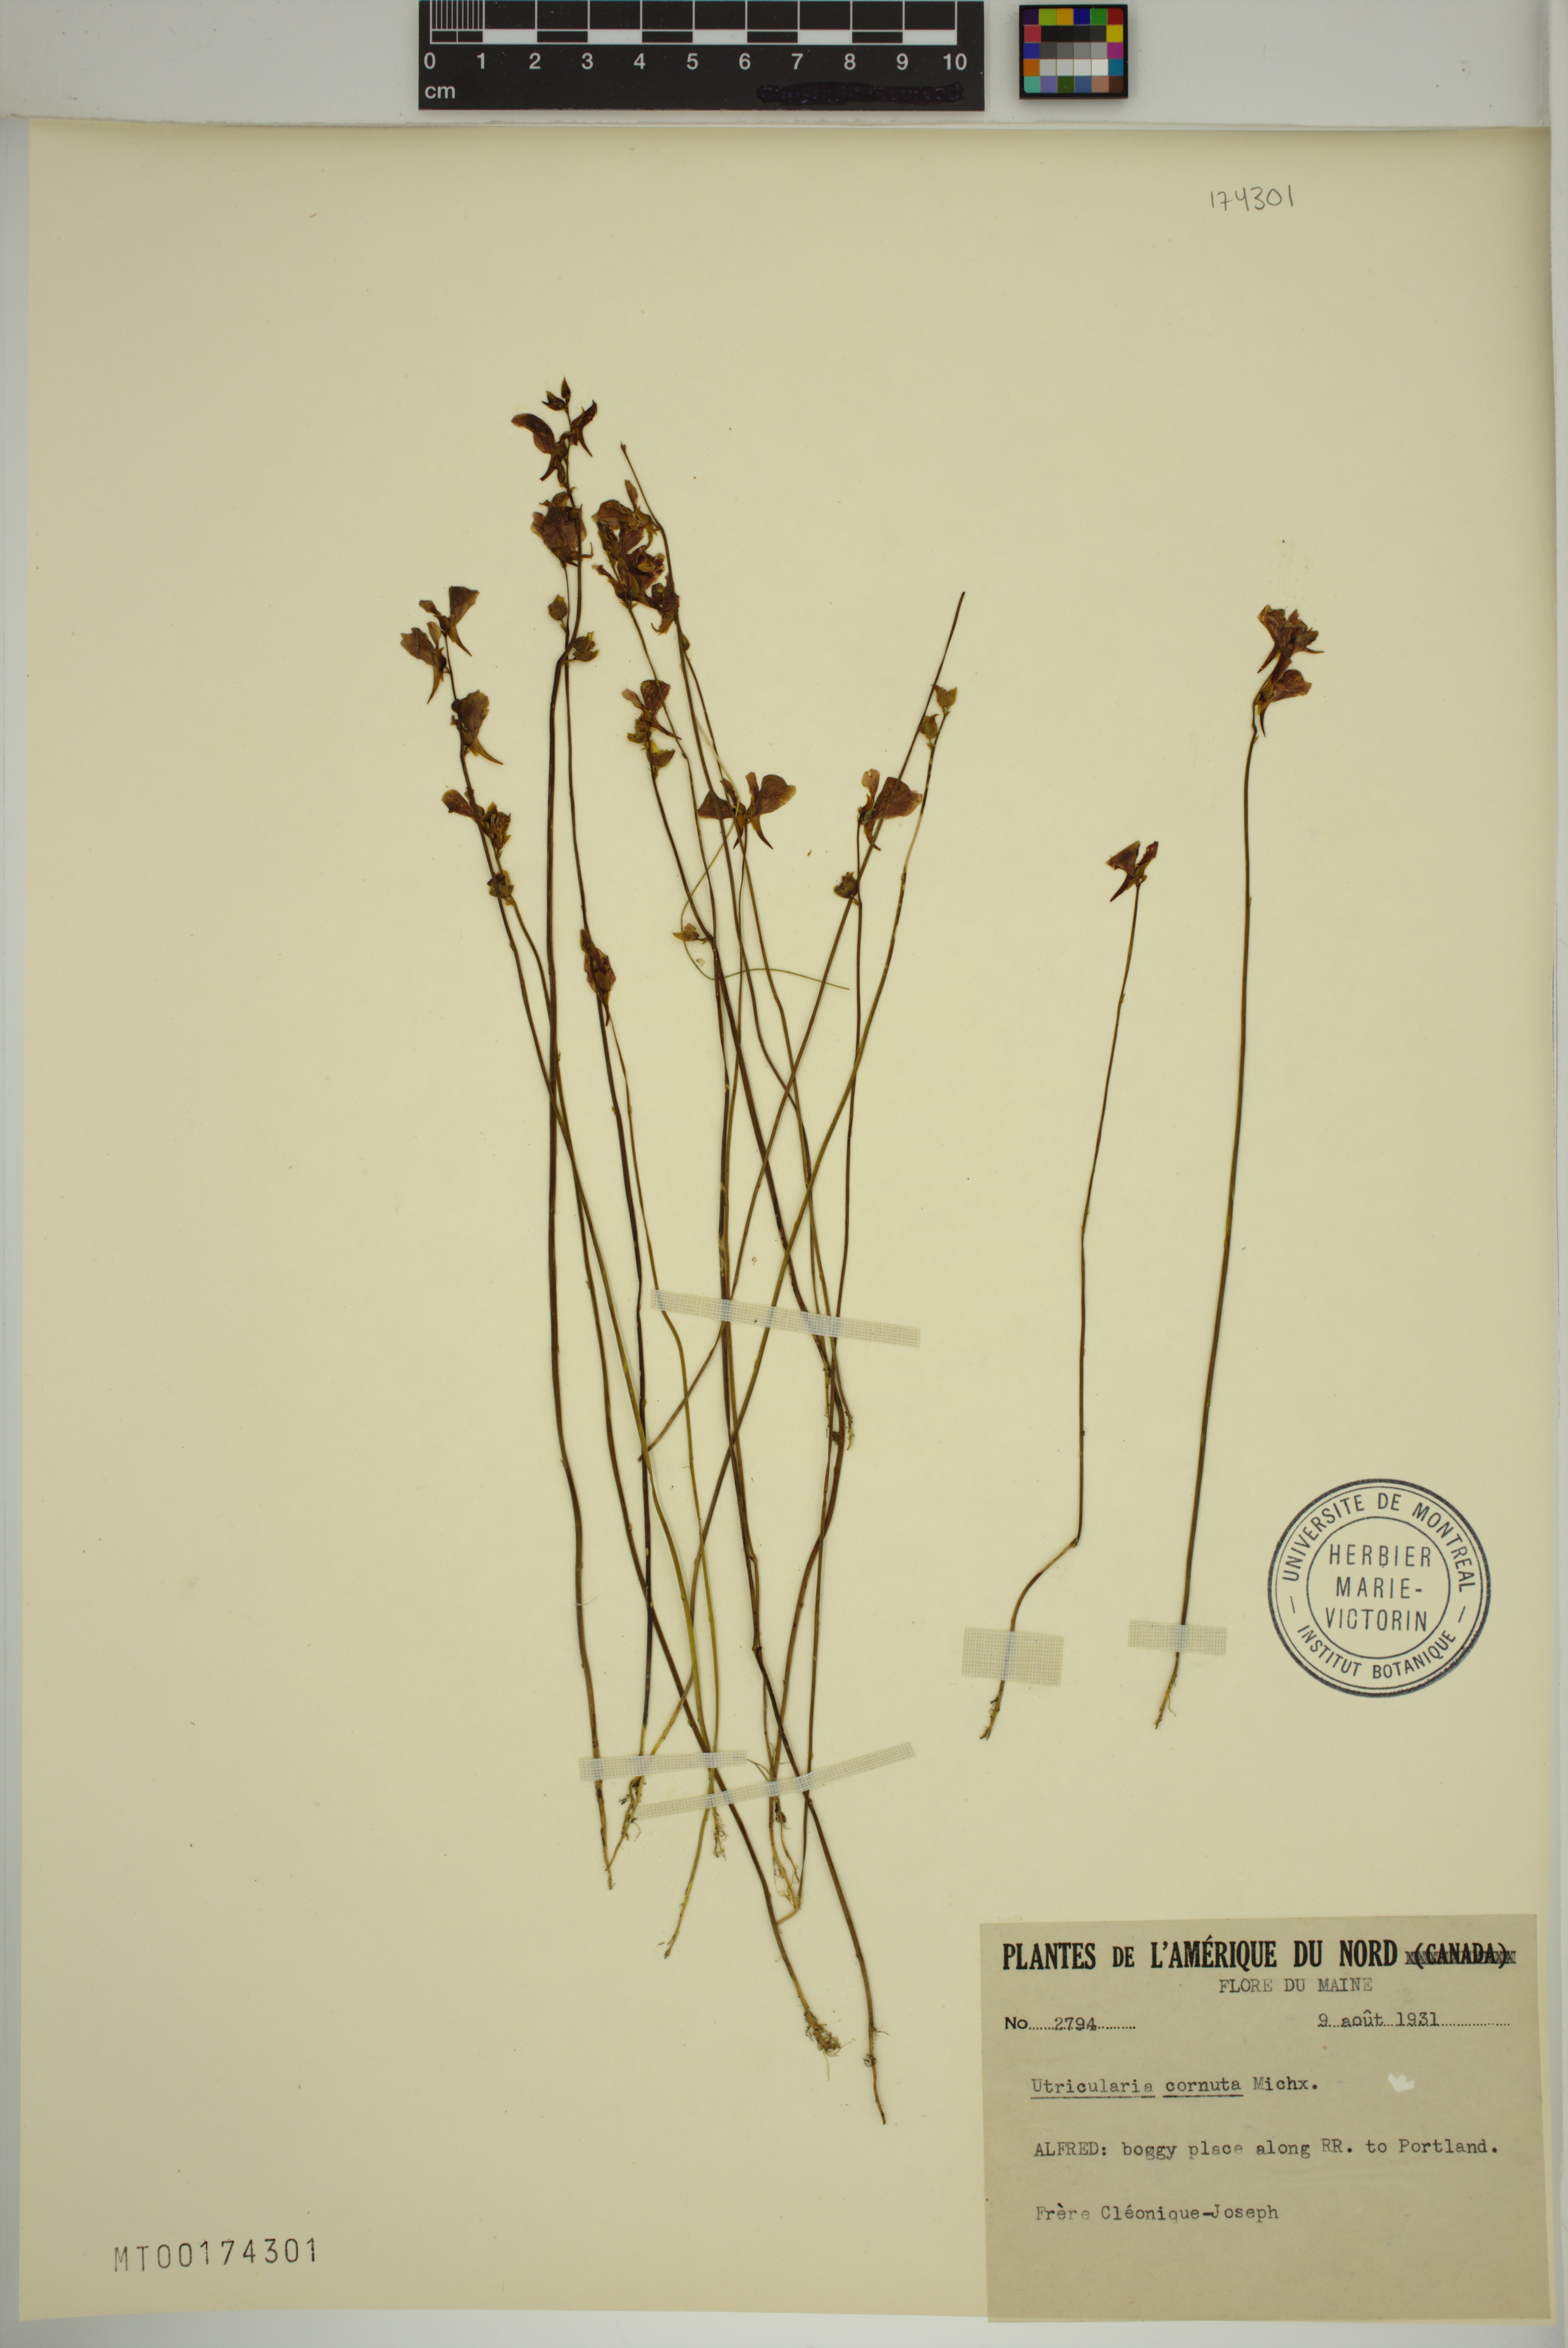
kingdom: Plantae
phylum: Tracheophyta
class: Magnoliopsida
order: Lamiales
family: Lentibulariaceae
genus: Utricularia
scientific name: Utricularia cornuta
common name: Horned bladderwort
